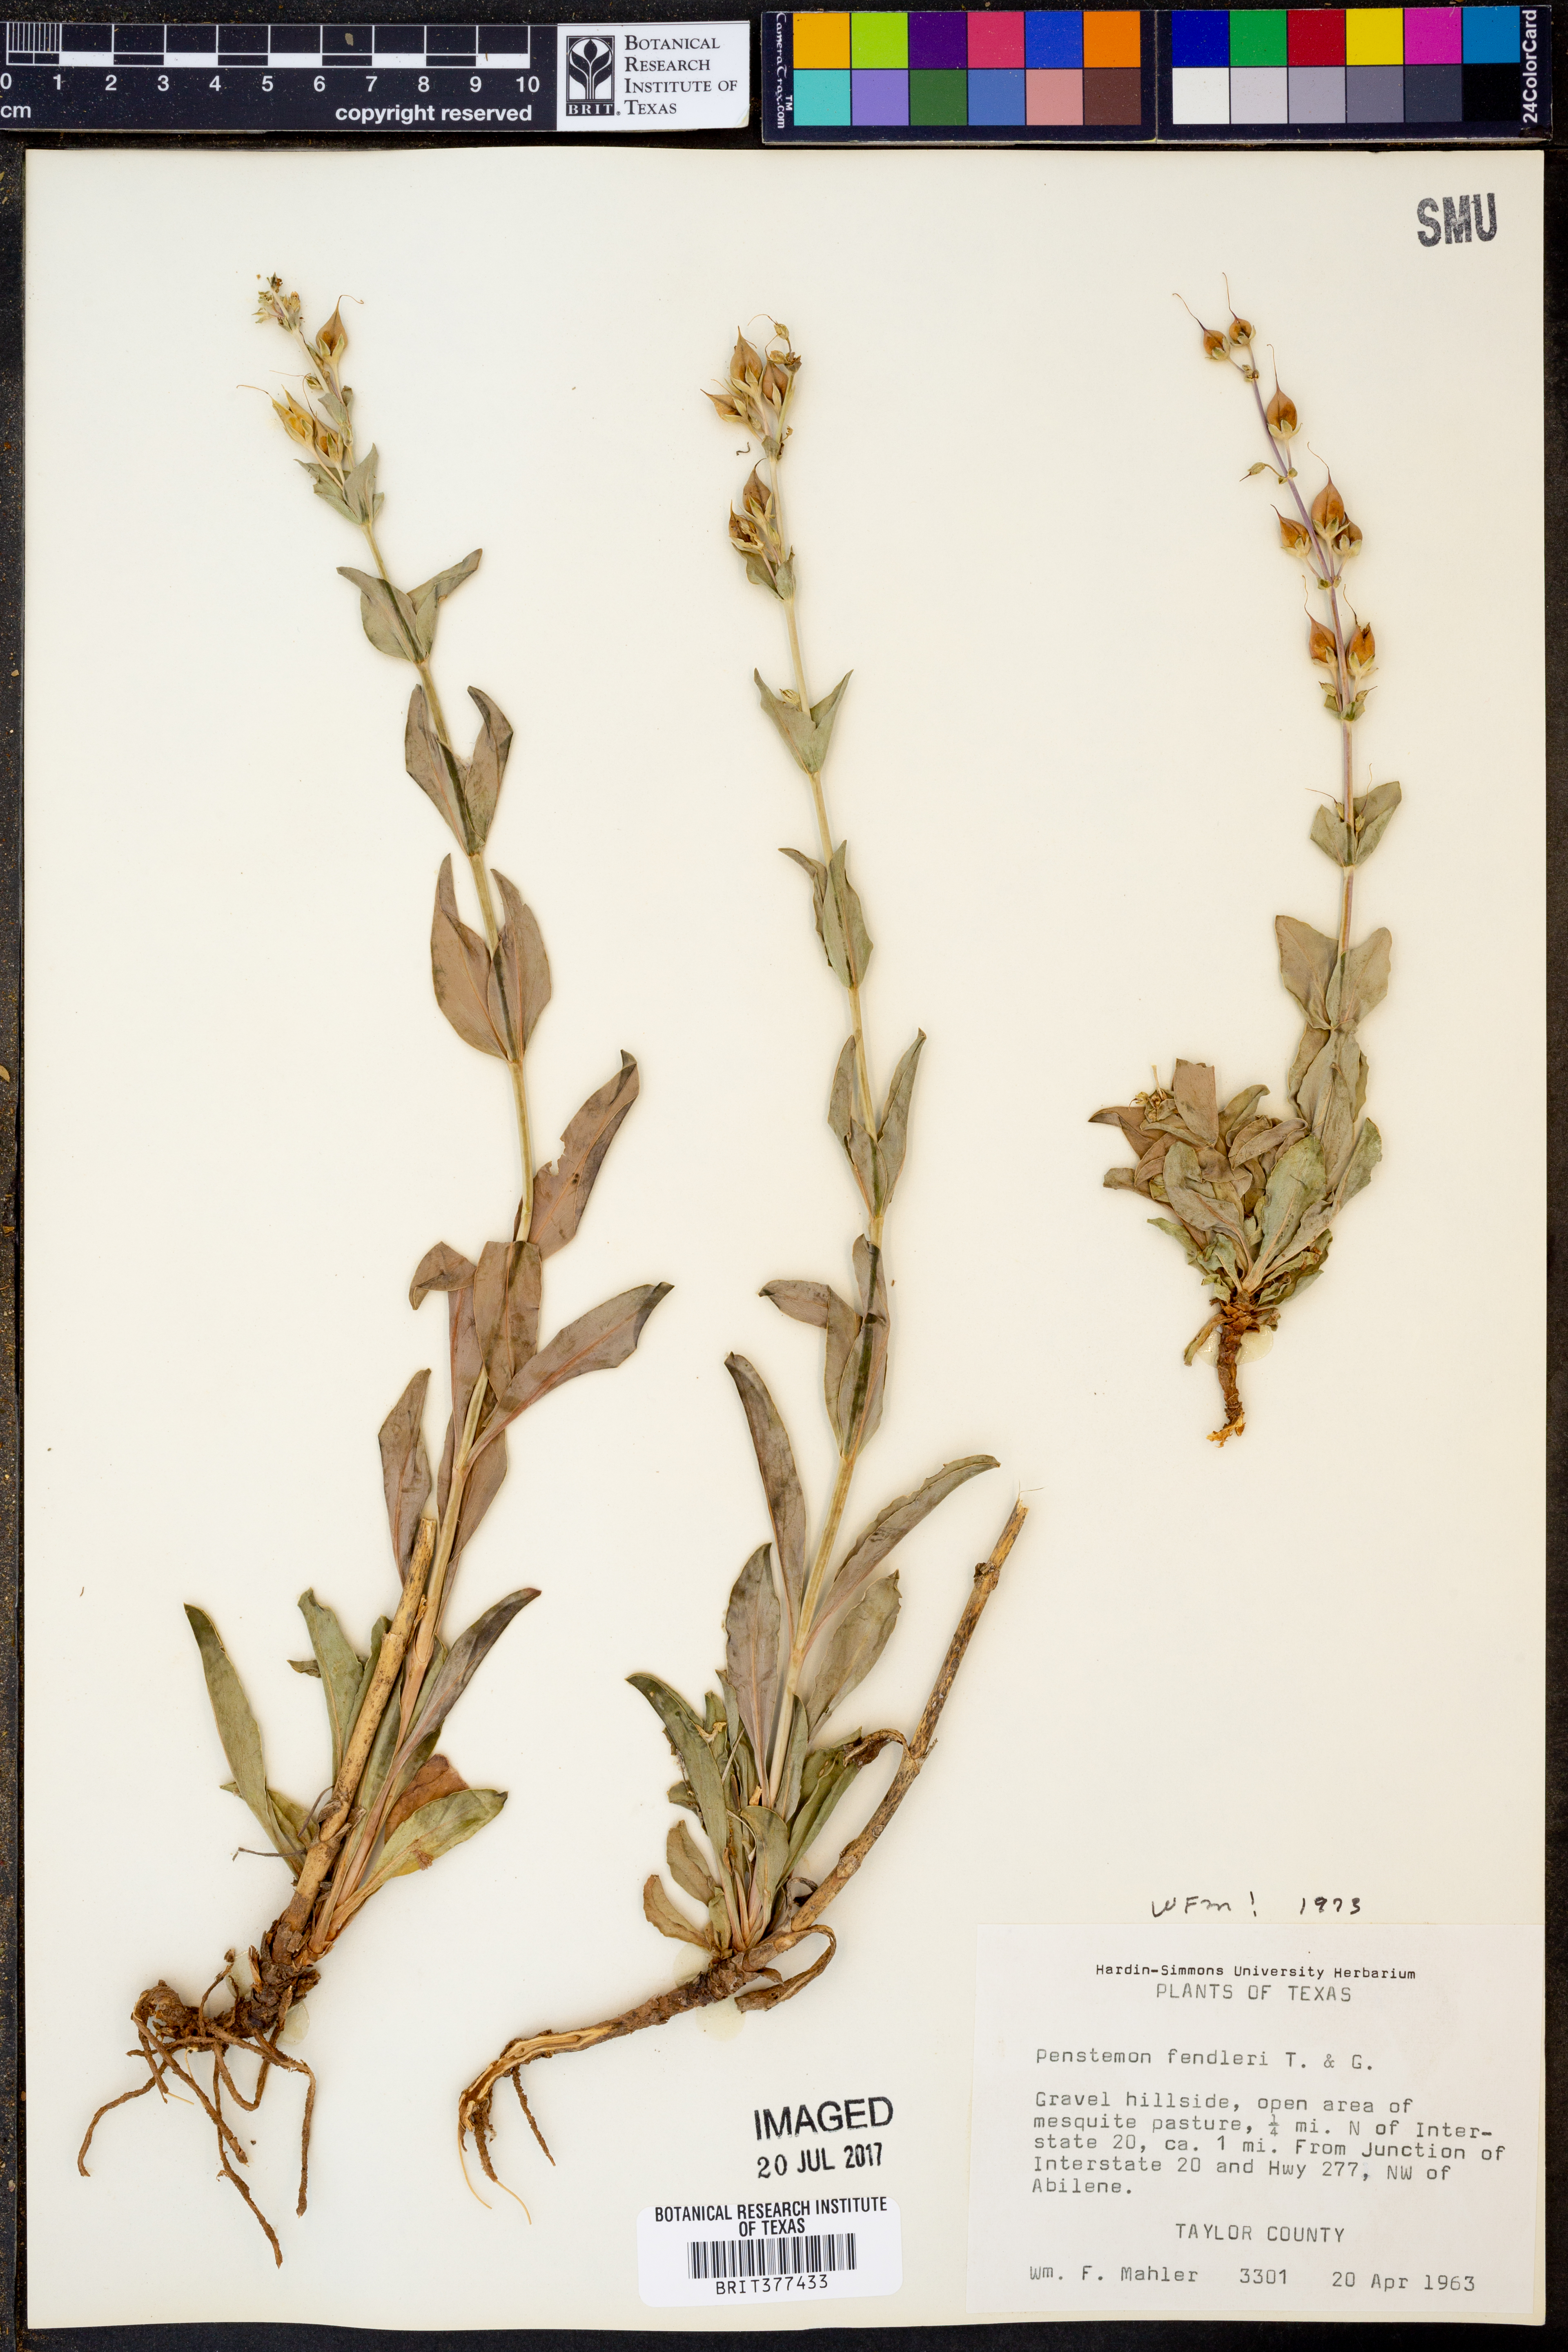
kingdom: Plantae
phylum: Tracheophyta
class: Magnoliopsida
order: Lamiales
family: Plantaginaceae
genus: Penstemon
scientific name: Penstemon fendleri
